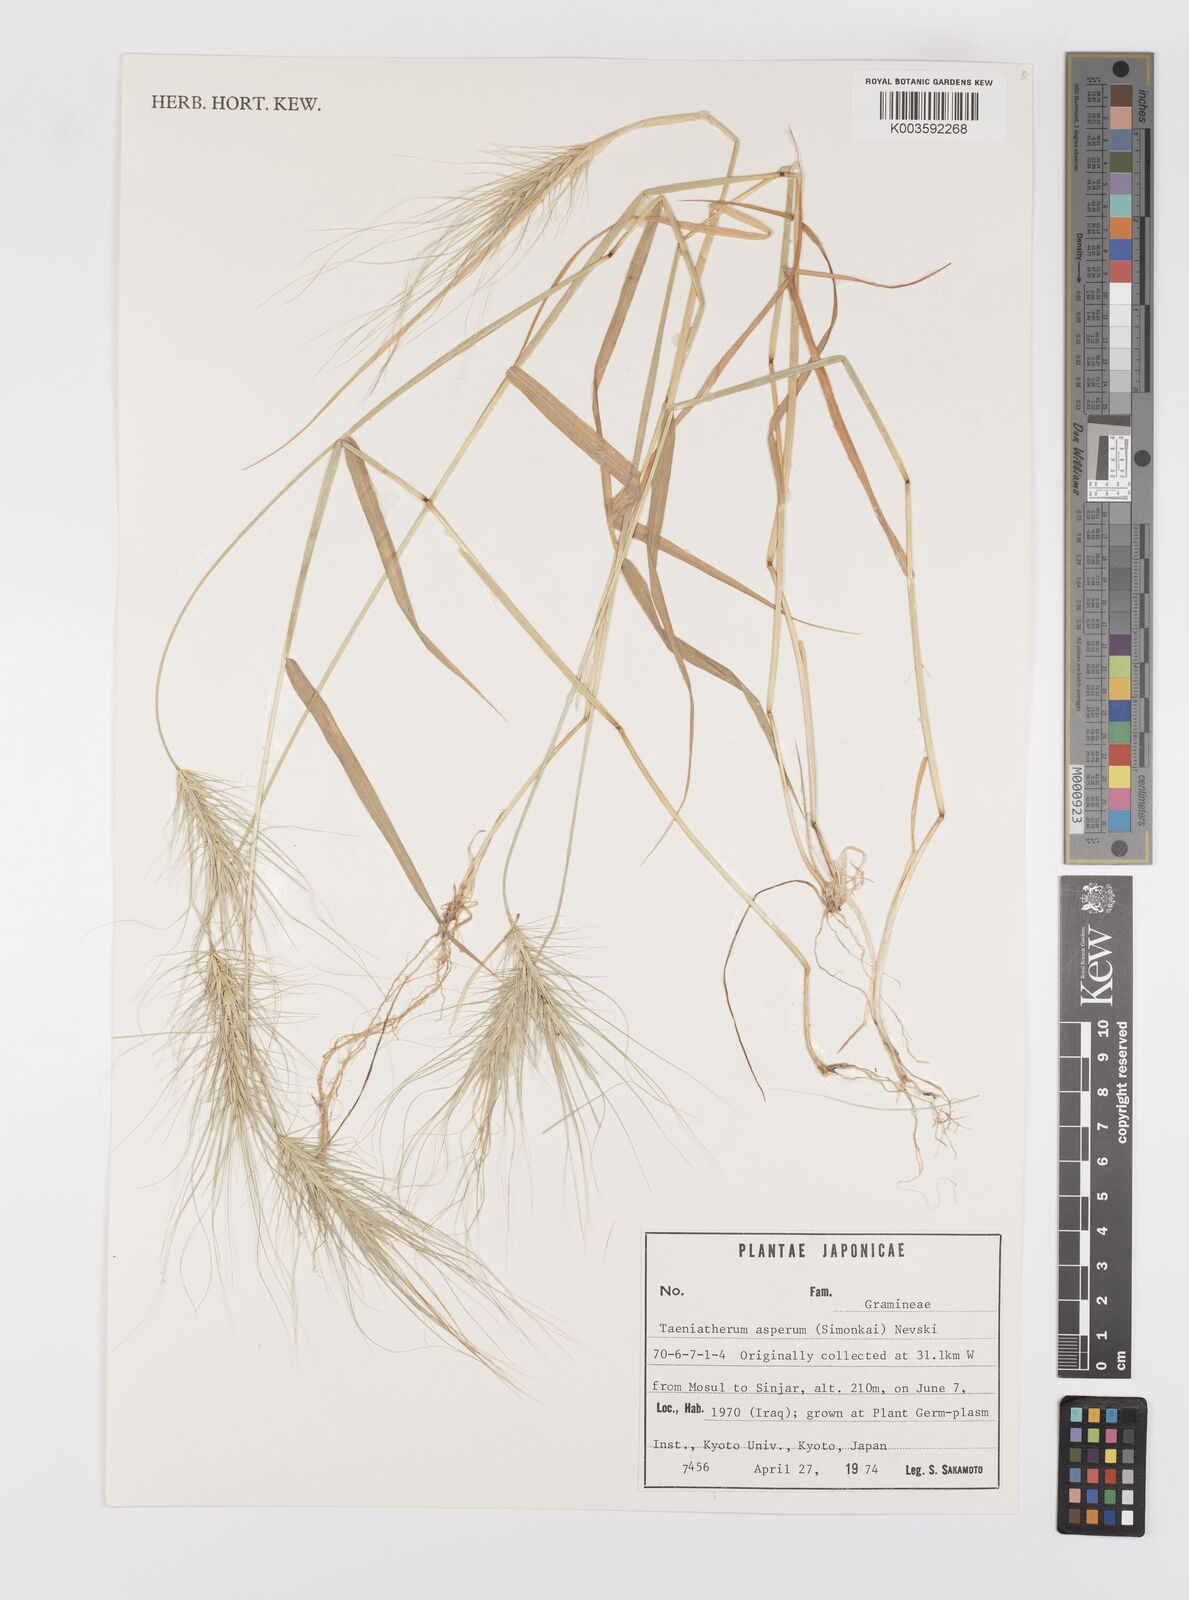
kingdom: Plantae
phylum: Tracheophyta
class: Liliopsida
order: Poales
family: Poaceae
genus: Taeniatherum
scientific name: Taeniatherum caput-medusae
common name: Medusahead
